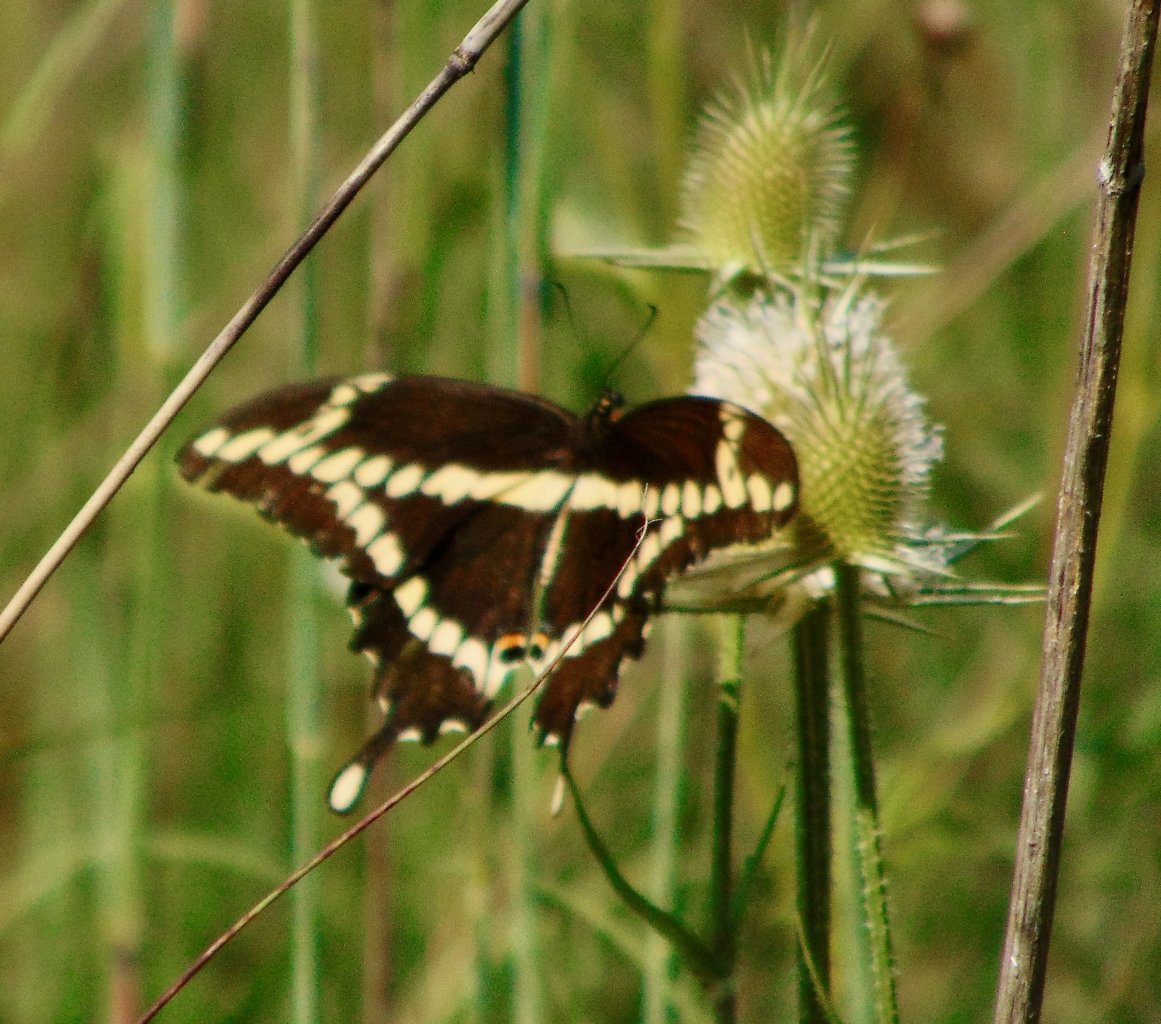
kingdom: Animalia
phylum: Arthropoda
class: Insecta
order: Lepidoptera
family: Papilionidae
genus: Papilio
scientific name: Papilio cresphontes
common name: Eastern Giant Swallowtail
